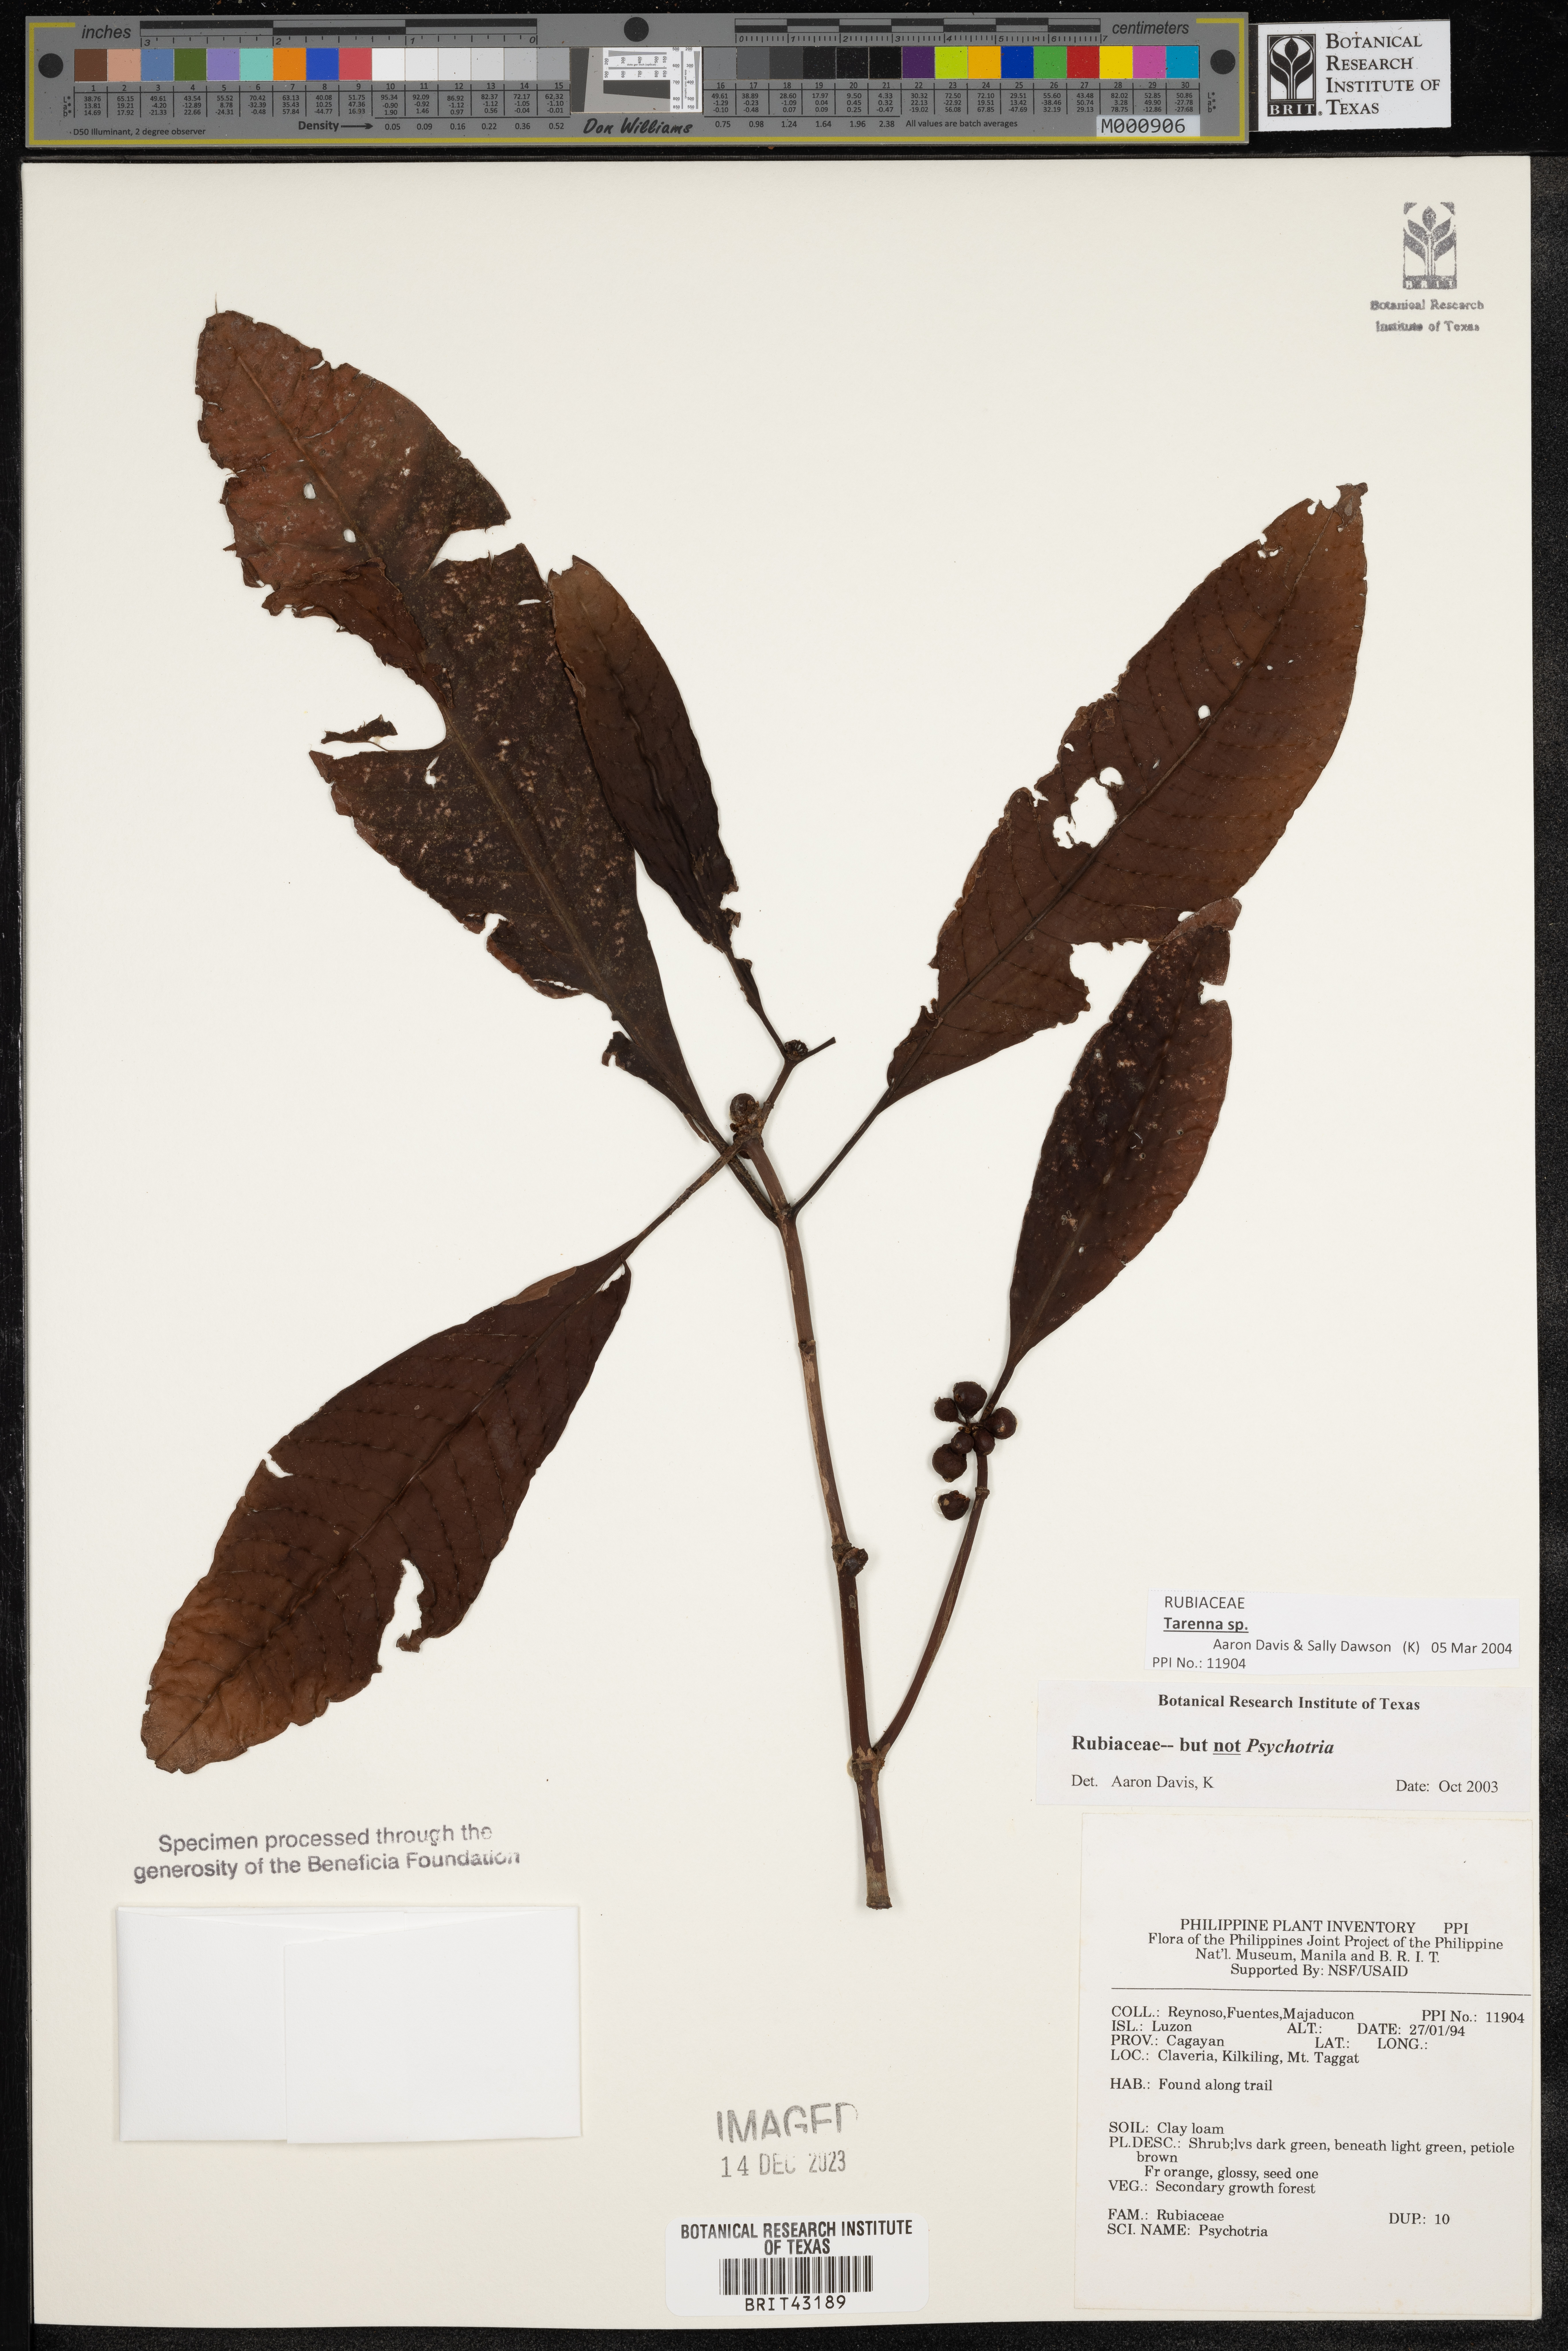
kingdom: Plantae
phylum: Tracheophyta
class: Magnoliopsida
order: Gentianales
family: Rubiaceae
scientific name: Rubiaceae
